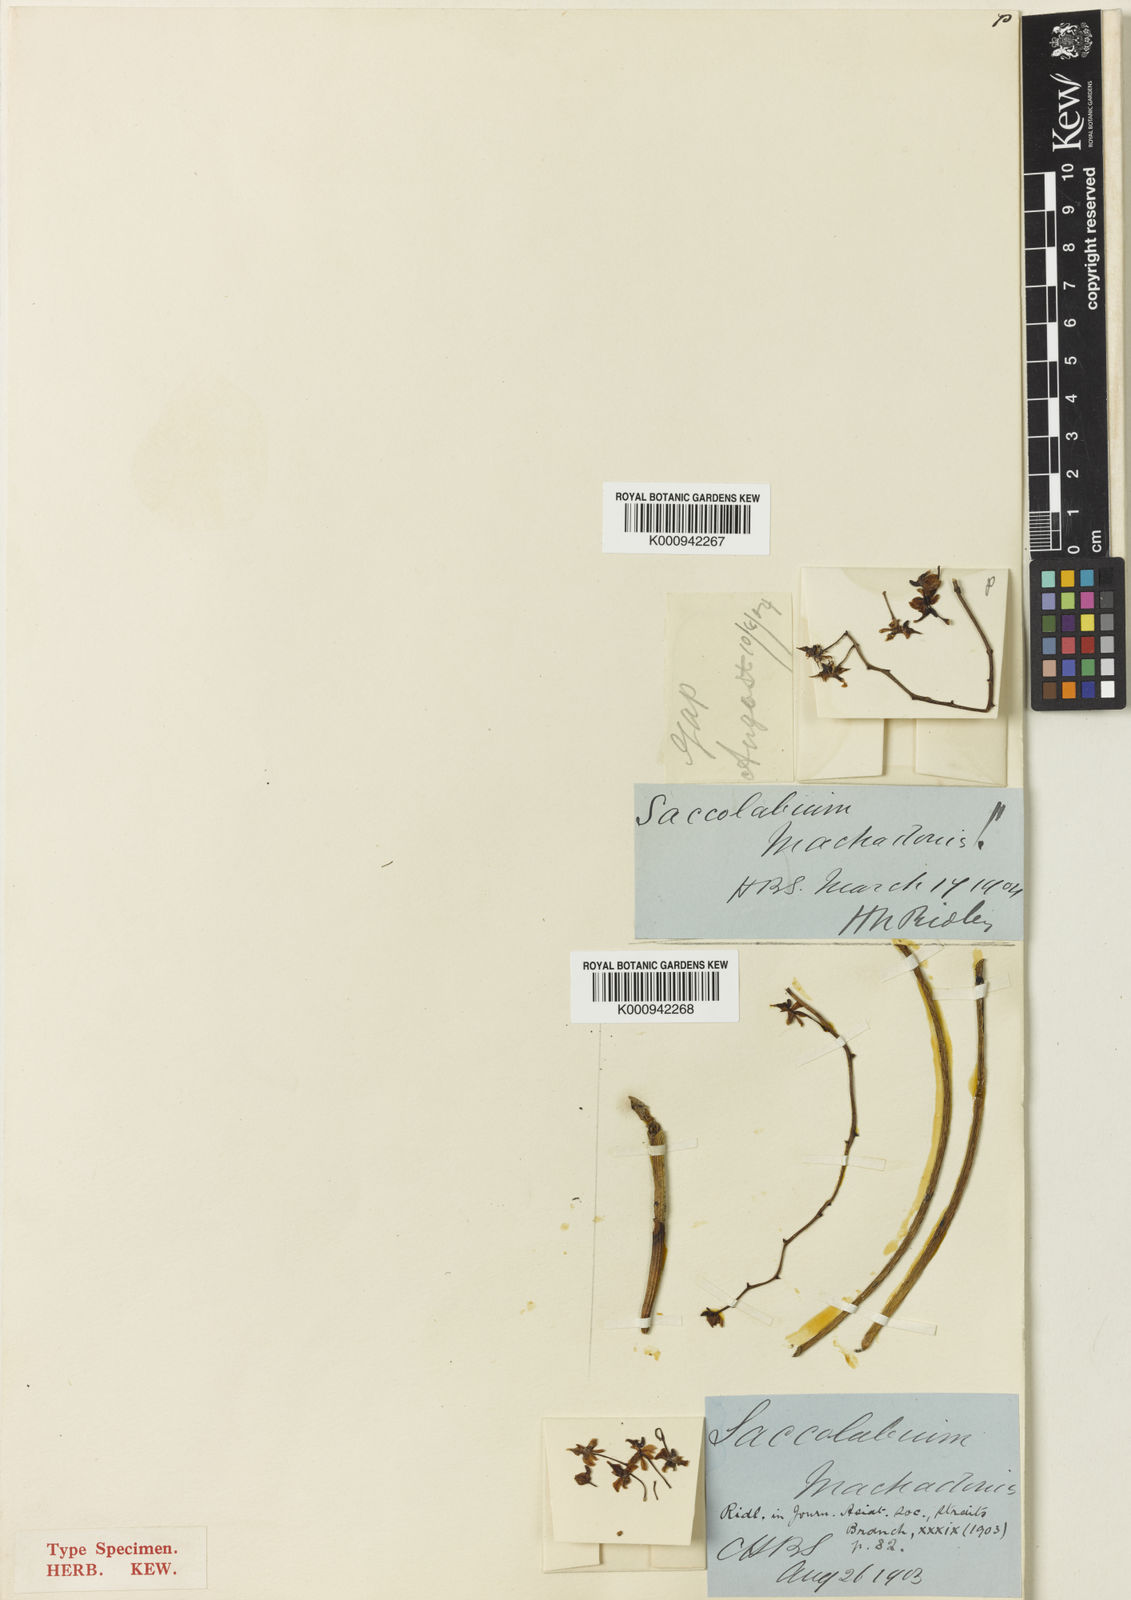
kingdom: Plantae
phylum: Tracheophyta
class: Liliopsida
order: Asparagales
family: Orchidaceae
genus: Cleisostoma
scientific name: Cleisostoma teretifolium
